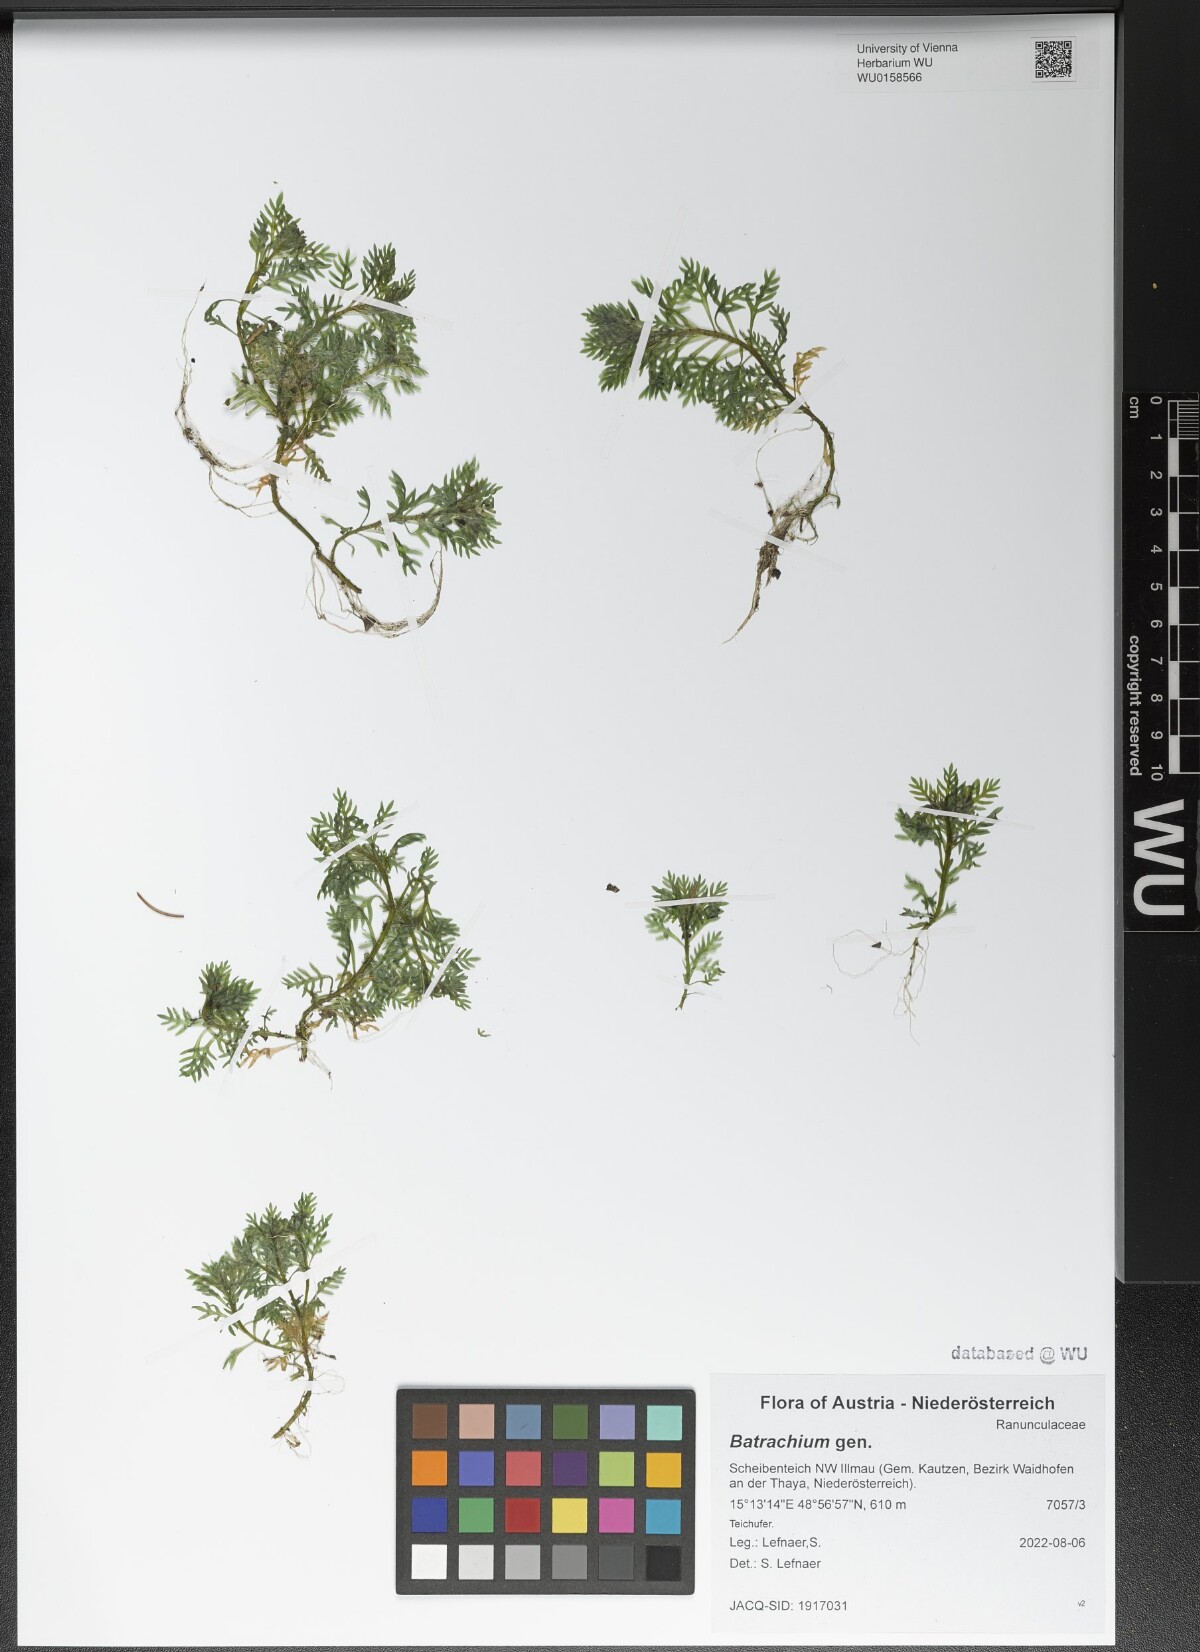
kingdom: Plantae
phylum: Tracheophyta
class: Magnoliopsida
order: Ranunculales
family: Ranunculaceae
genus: Ranunculus
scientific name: Ranunculus
